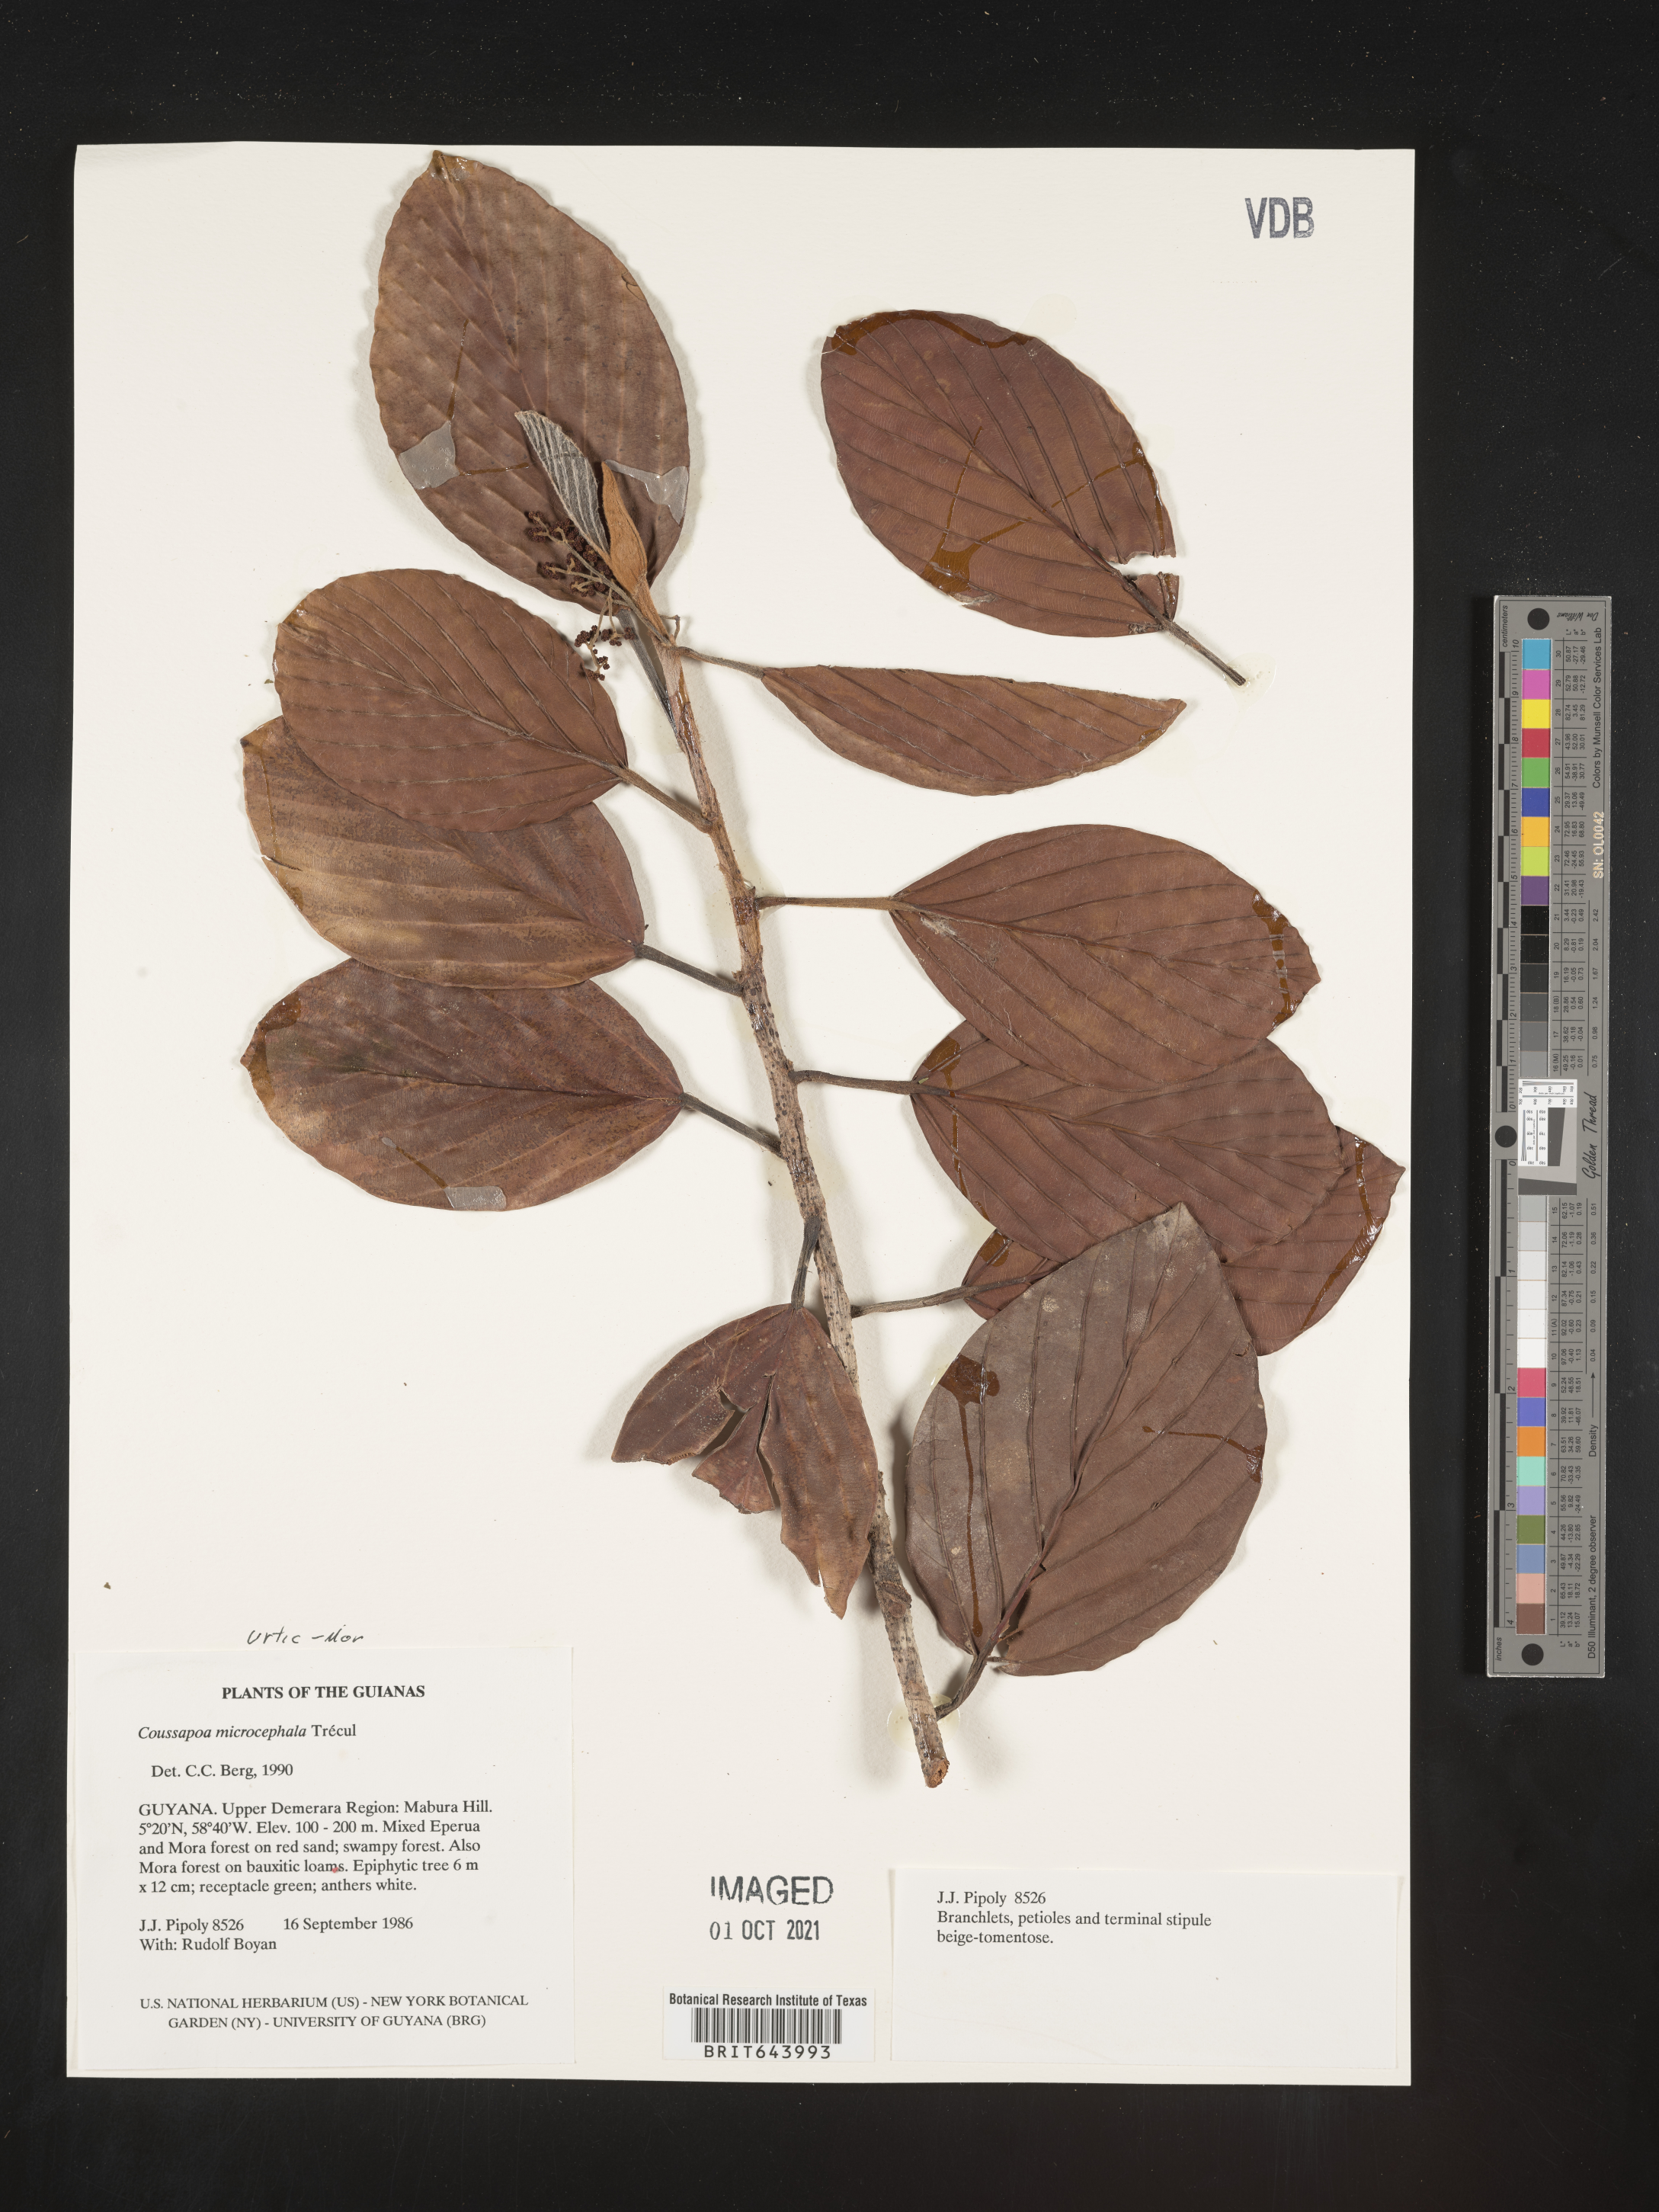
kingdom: Plantae
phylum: Tracheophyta
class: Magnoliopsida
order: Rosales
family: Urticaceae
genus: Coussapoa
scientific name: Coussapoa
